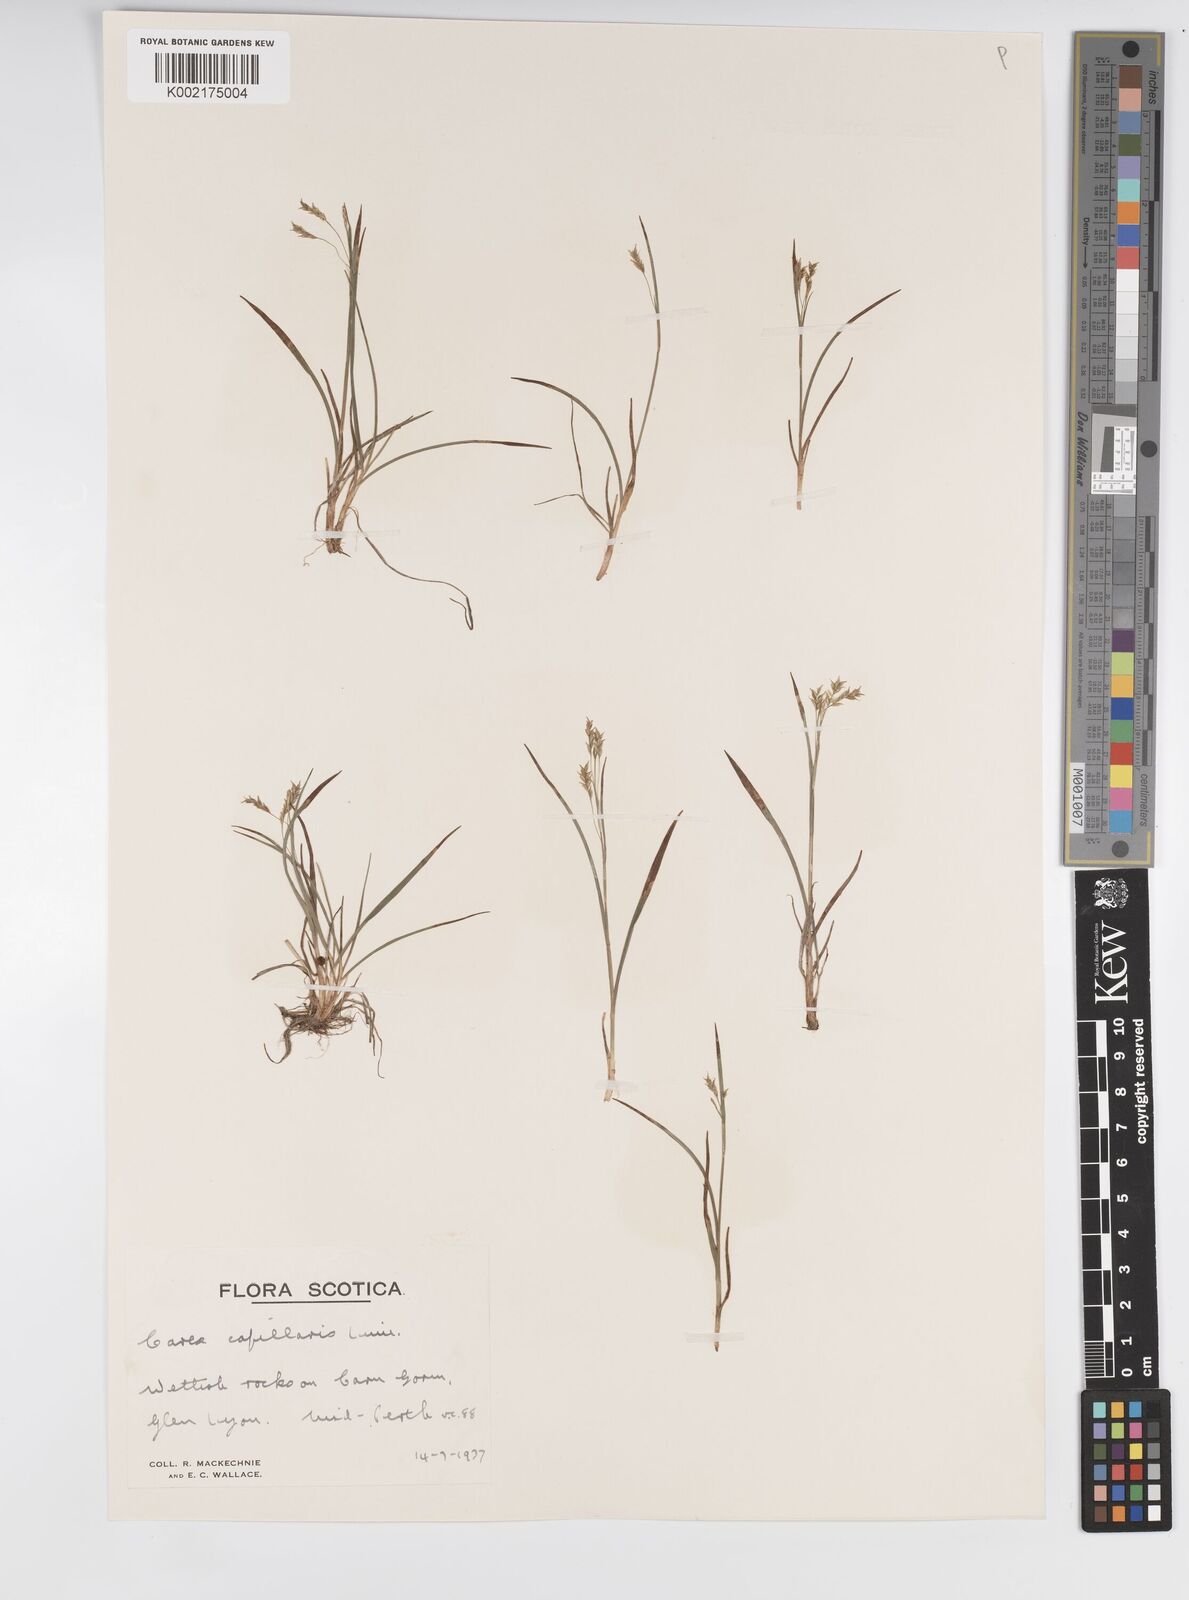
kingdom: Plantae
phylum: Tracheophyta
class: Liliopsida
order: Poales
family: Cyperaceae
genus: Carex
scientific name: Carex capillaris
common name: Hair sedge
